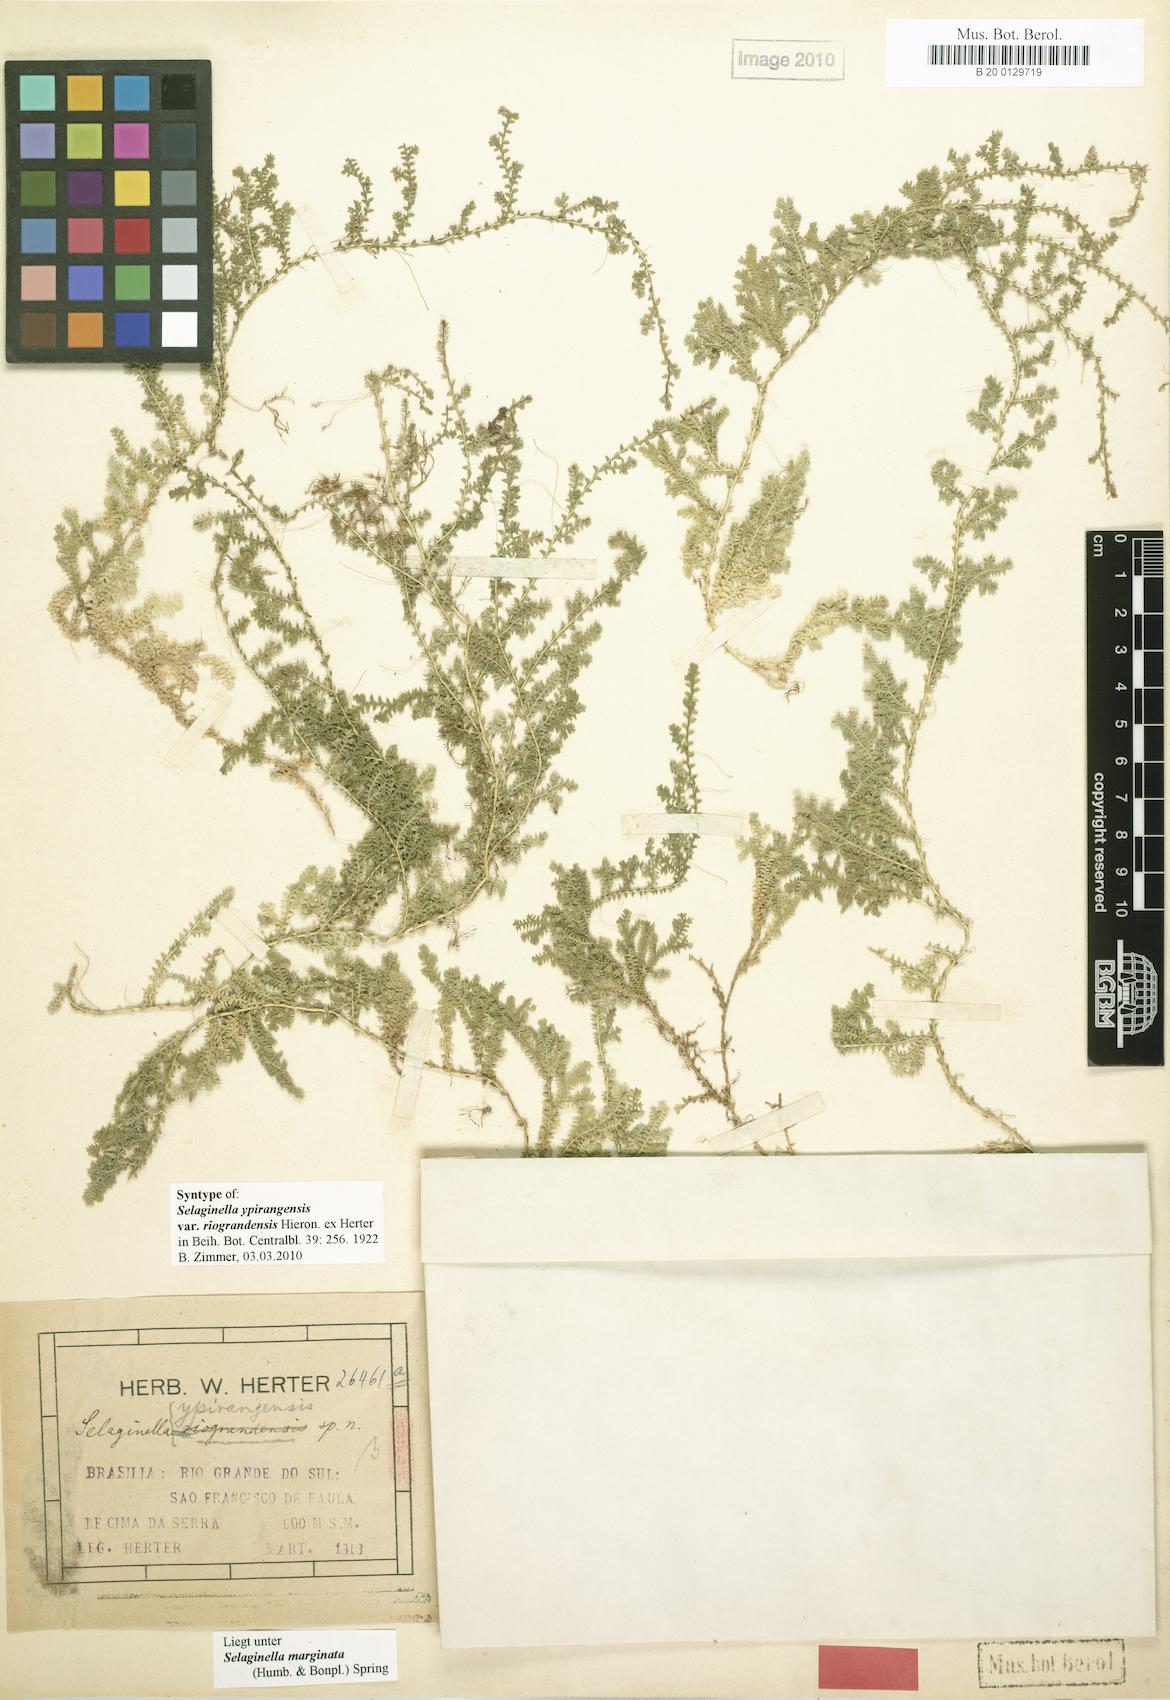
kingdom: Plantae
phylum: Tracheophyta
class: Lycopodiopsida
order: Selaginellales
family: Selaginellaceae
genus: Selaginella
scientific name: Selaginella marginata
